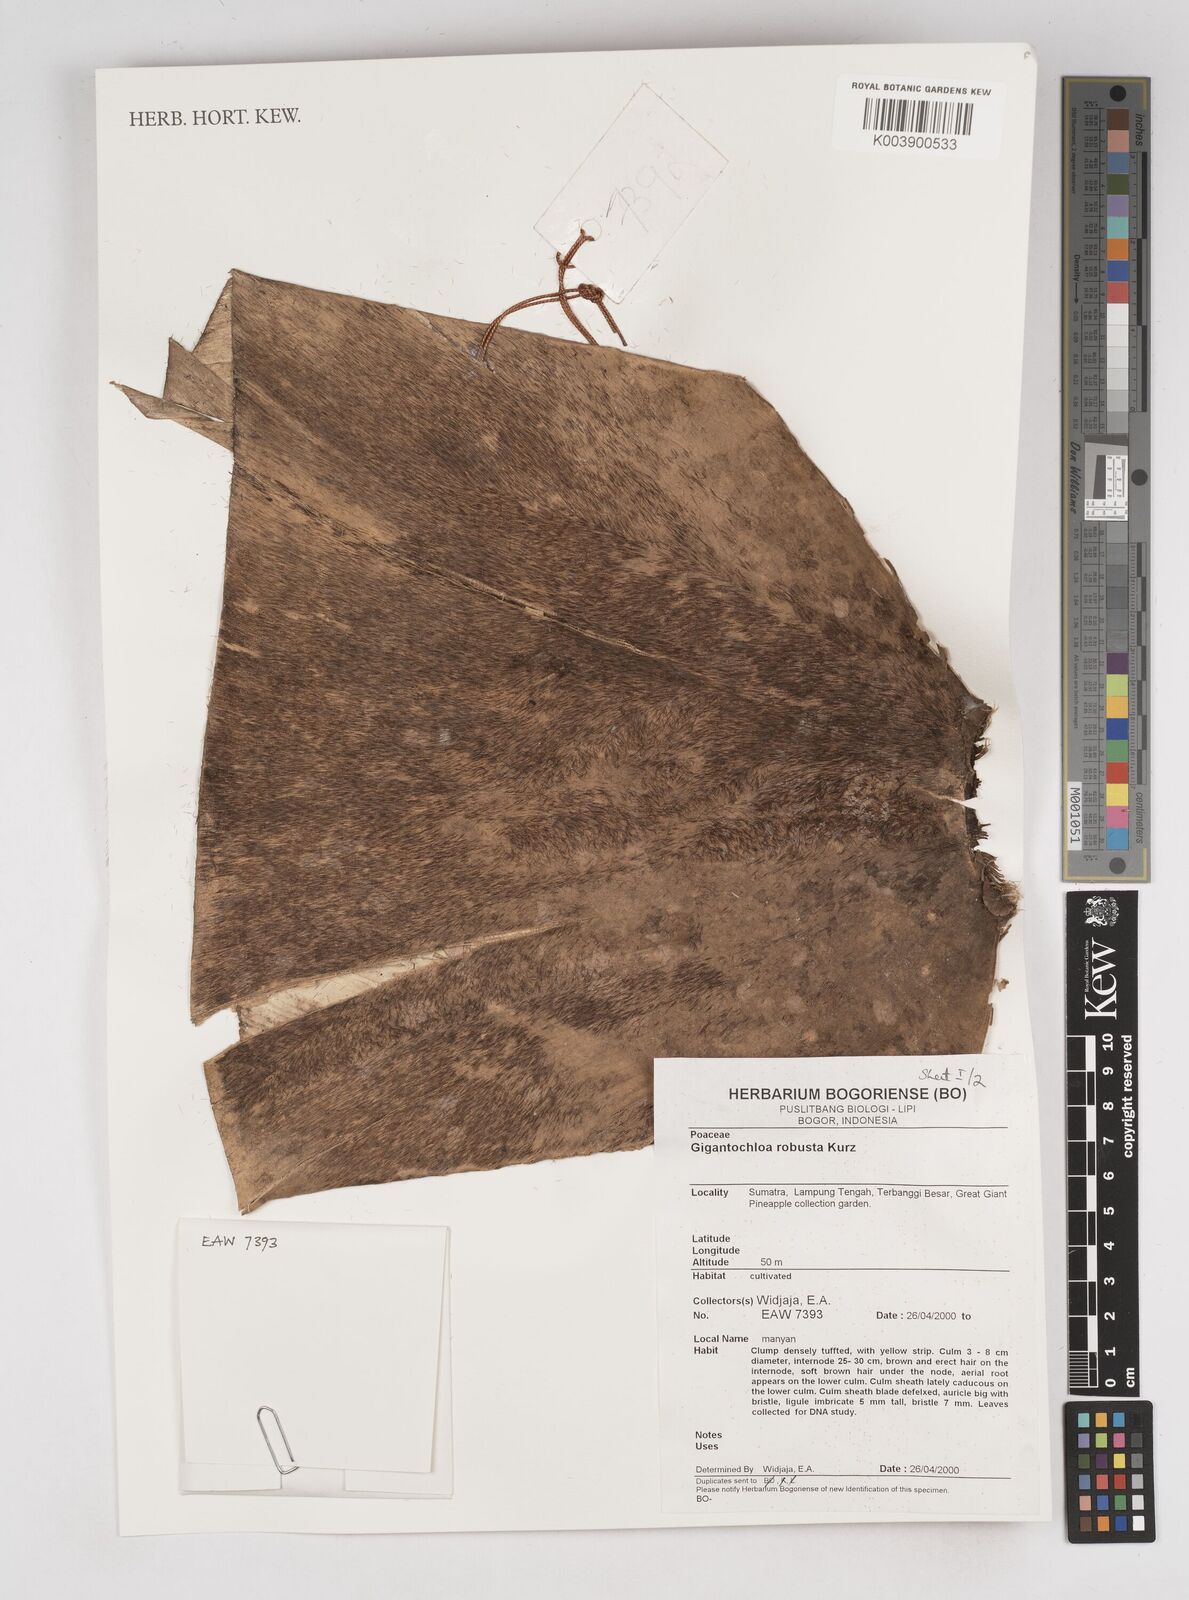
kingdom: Plantae
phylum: Tracheophyta
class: Liliopsida
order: Poales
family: Poaceae
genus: Gigantochloa
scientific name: Gigantochloa robusta
